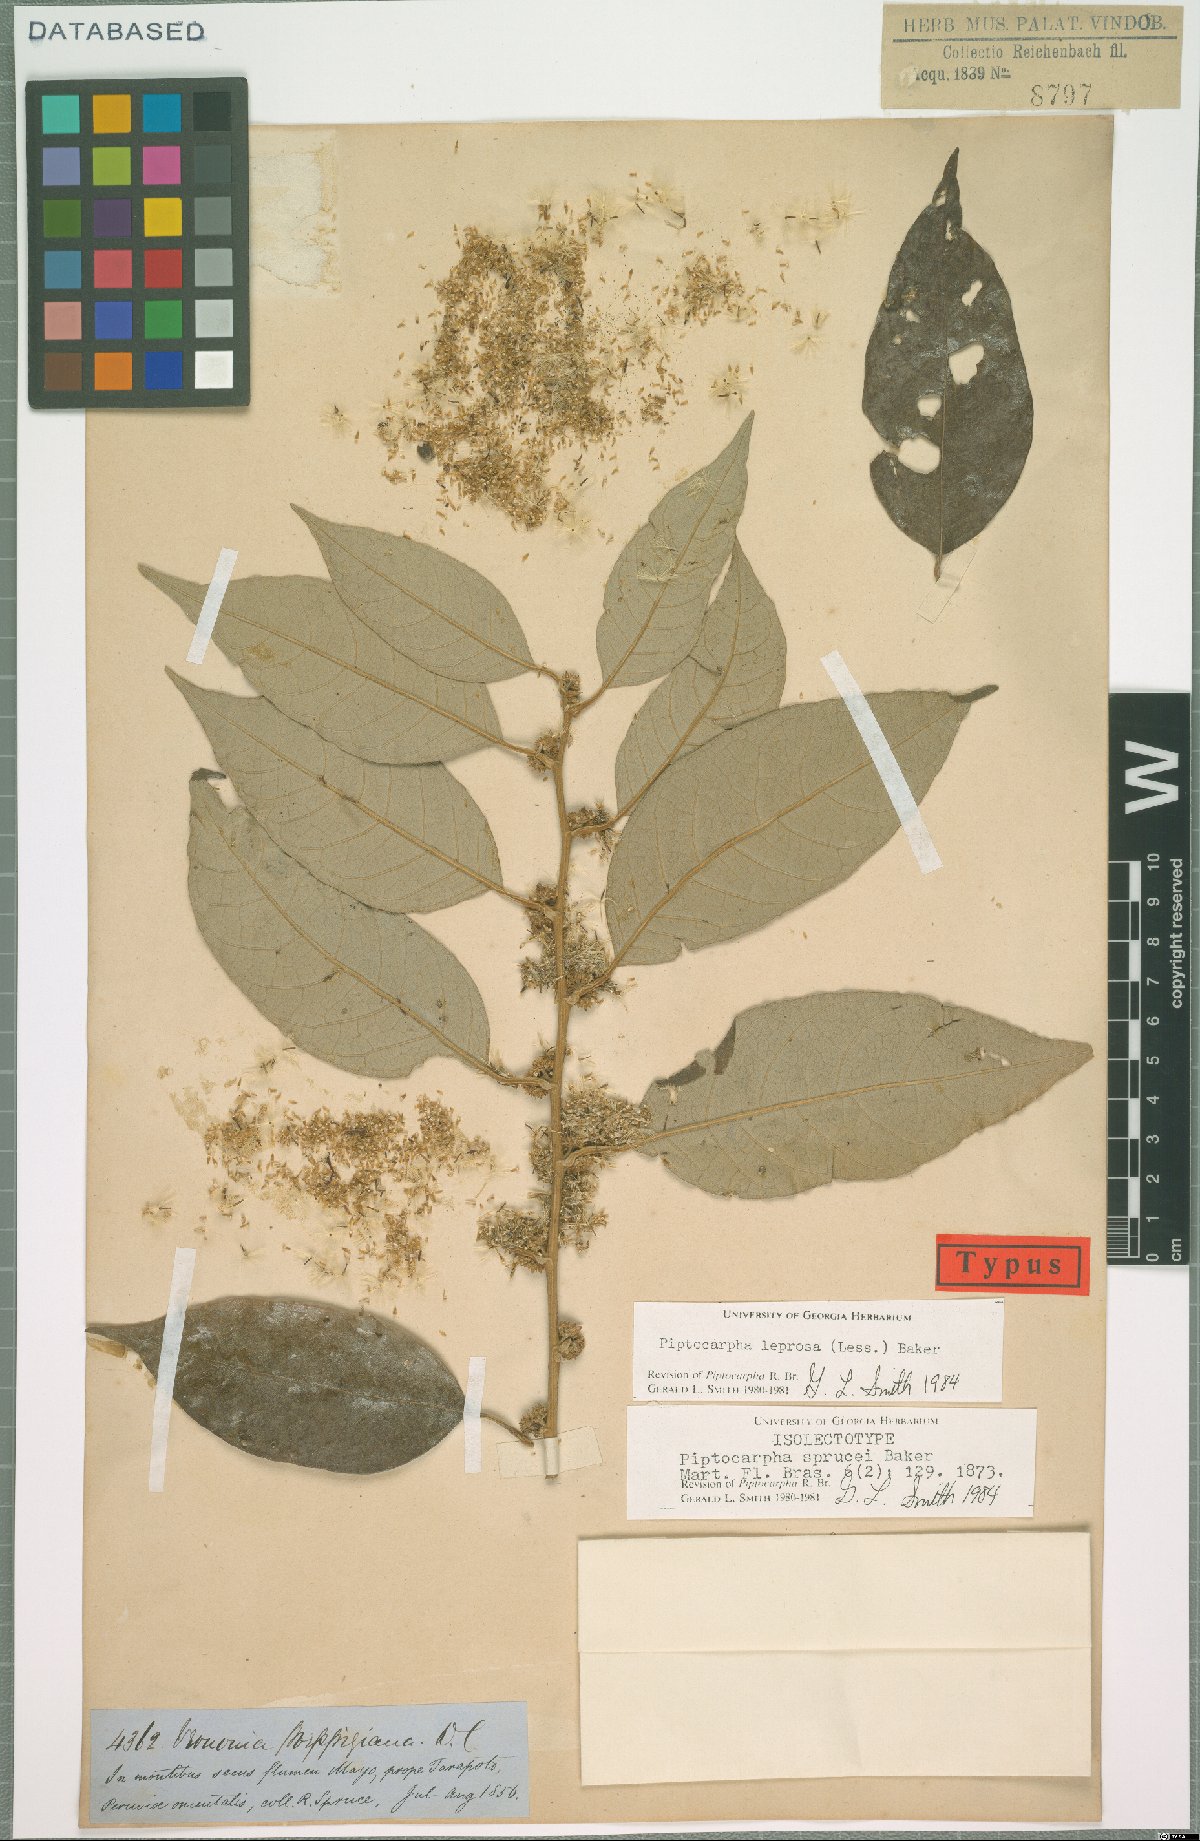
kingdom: Plantae
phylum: Tracheophyta
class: Magnoliopsida
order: Asterales
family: Asteraceae
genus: Piptocarpha
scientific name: Piptocarpha leprosa
